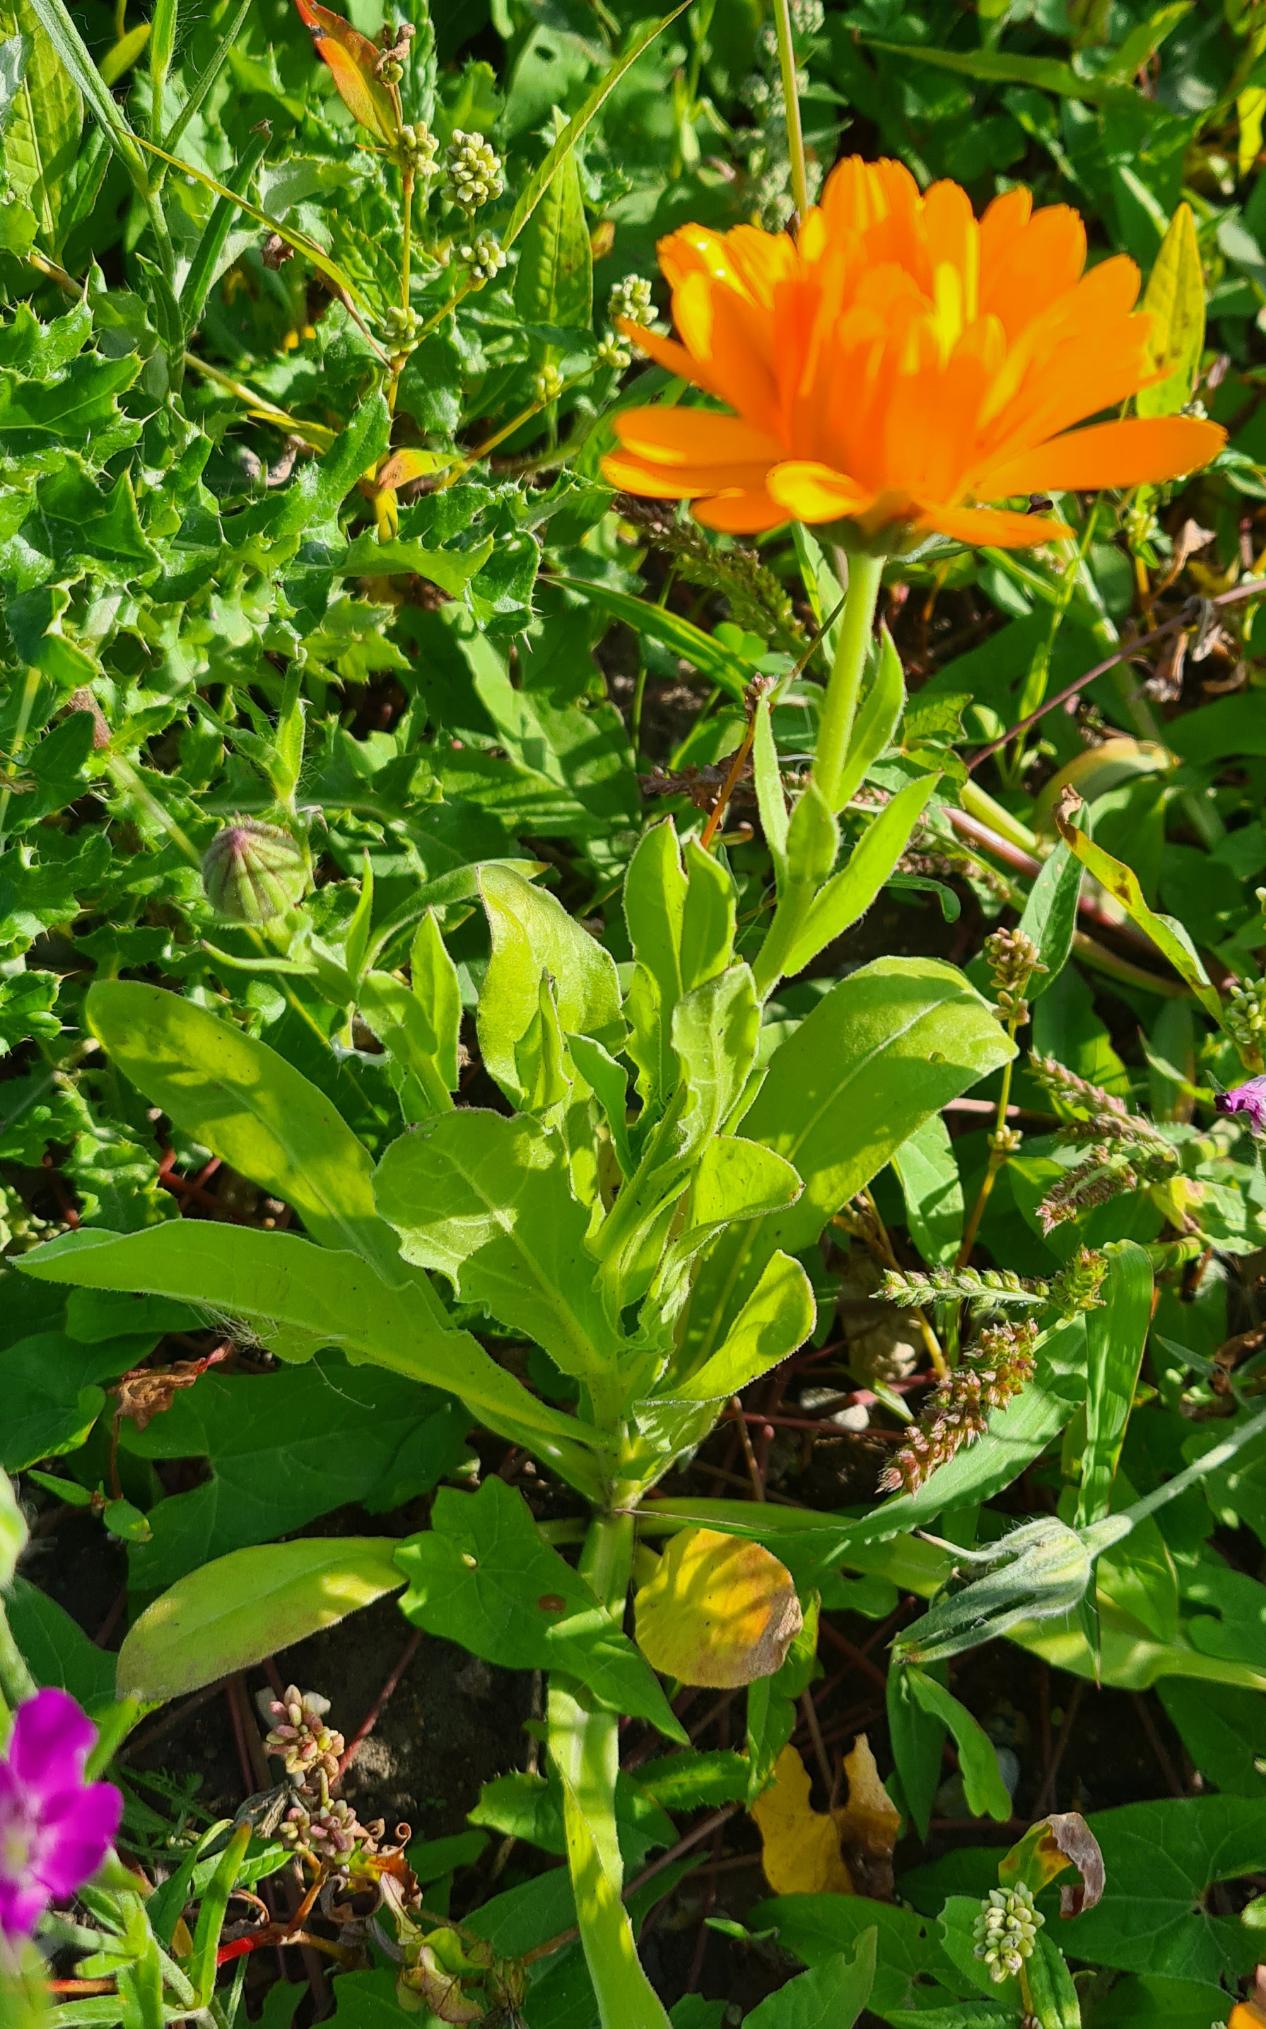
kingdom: Plantae
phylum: Tracheophyta
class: Magnoliopsida
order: Asterales
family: Asteraceae
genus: Calendula
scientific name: Calendula officinalis
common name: Have-morgenfrue
